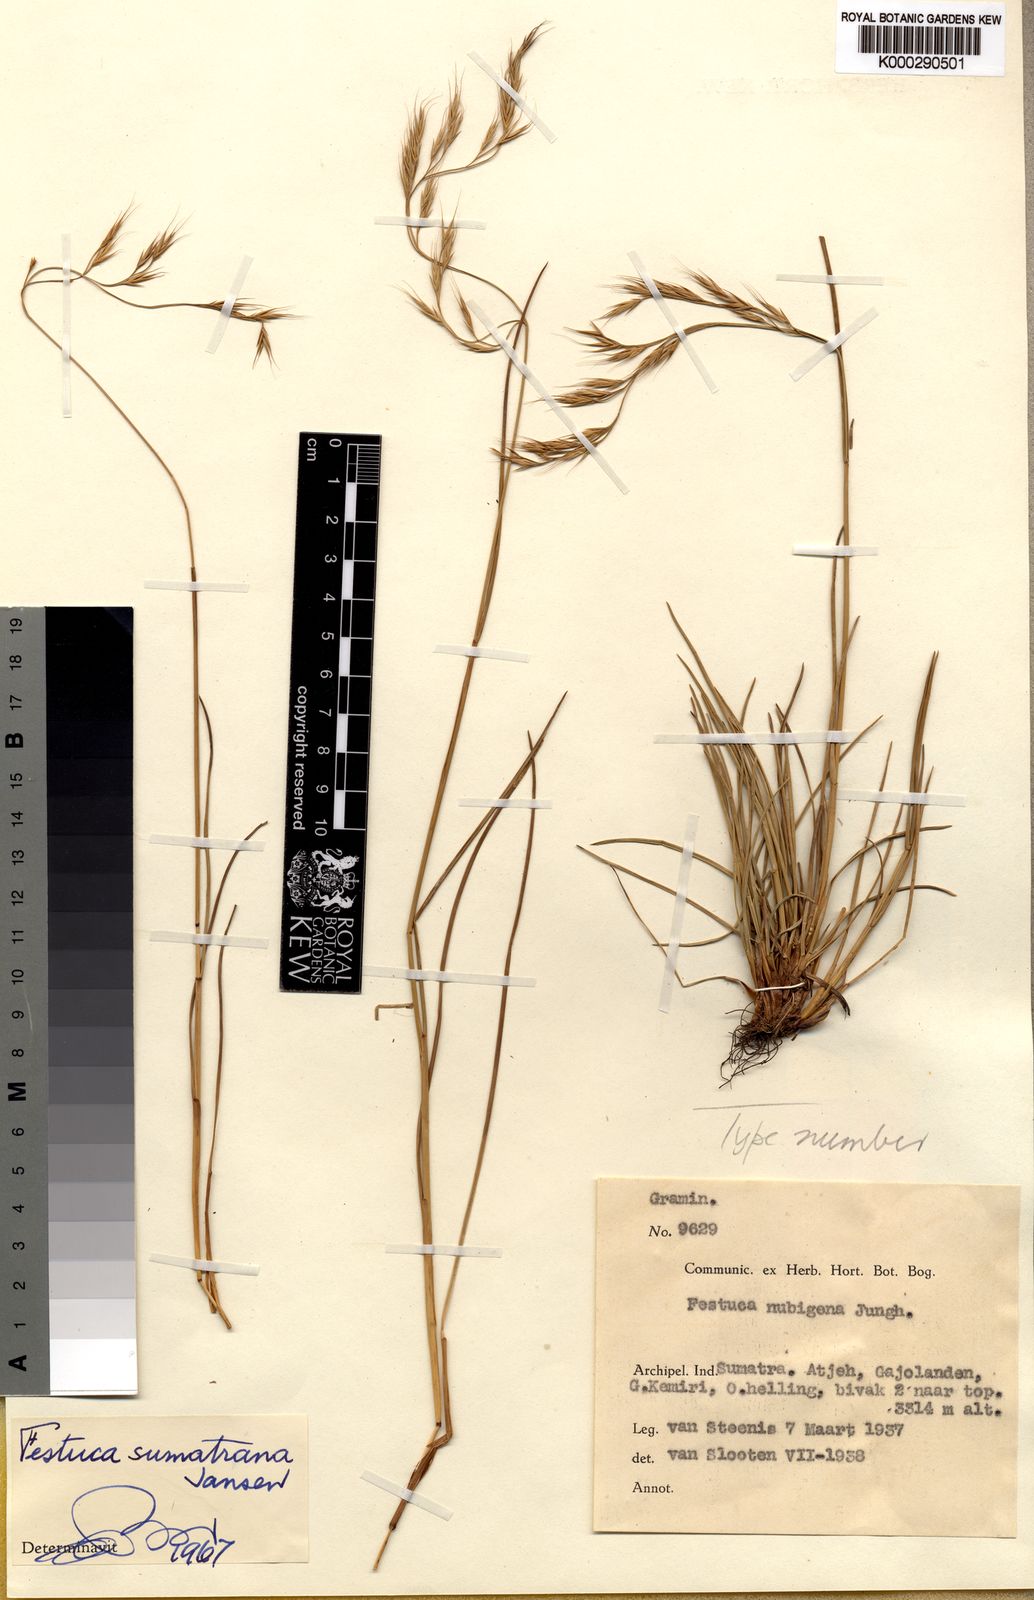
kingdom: Plantae
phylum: Tracheophyta
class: Liliopsida
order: Poales
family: Poaceae
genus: Festuca
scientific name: Festuca sumatrana
